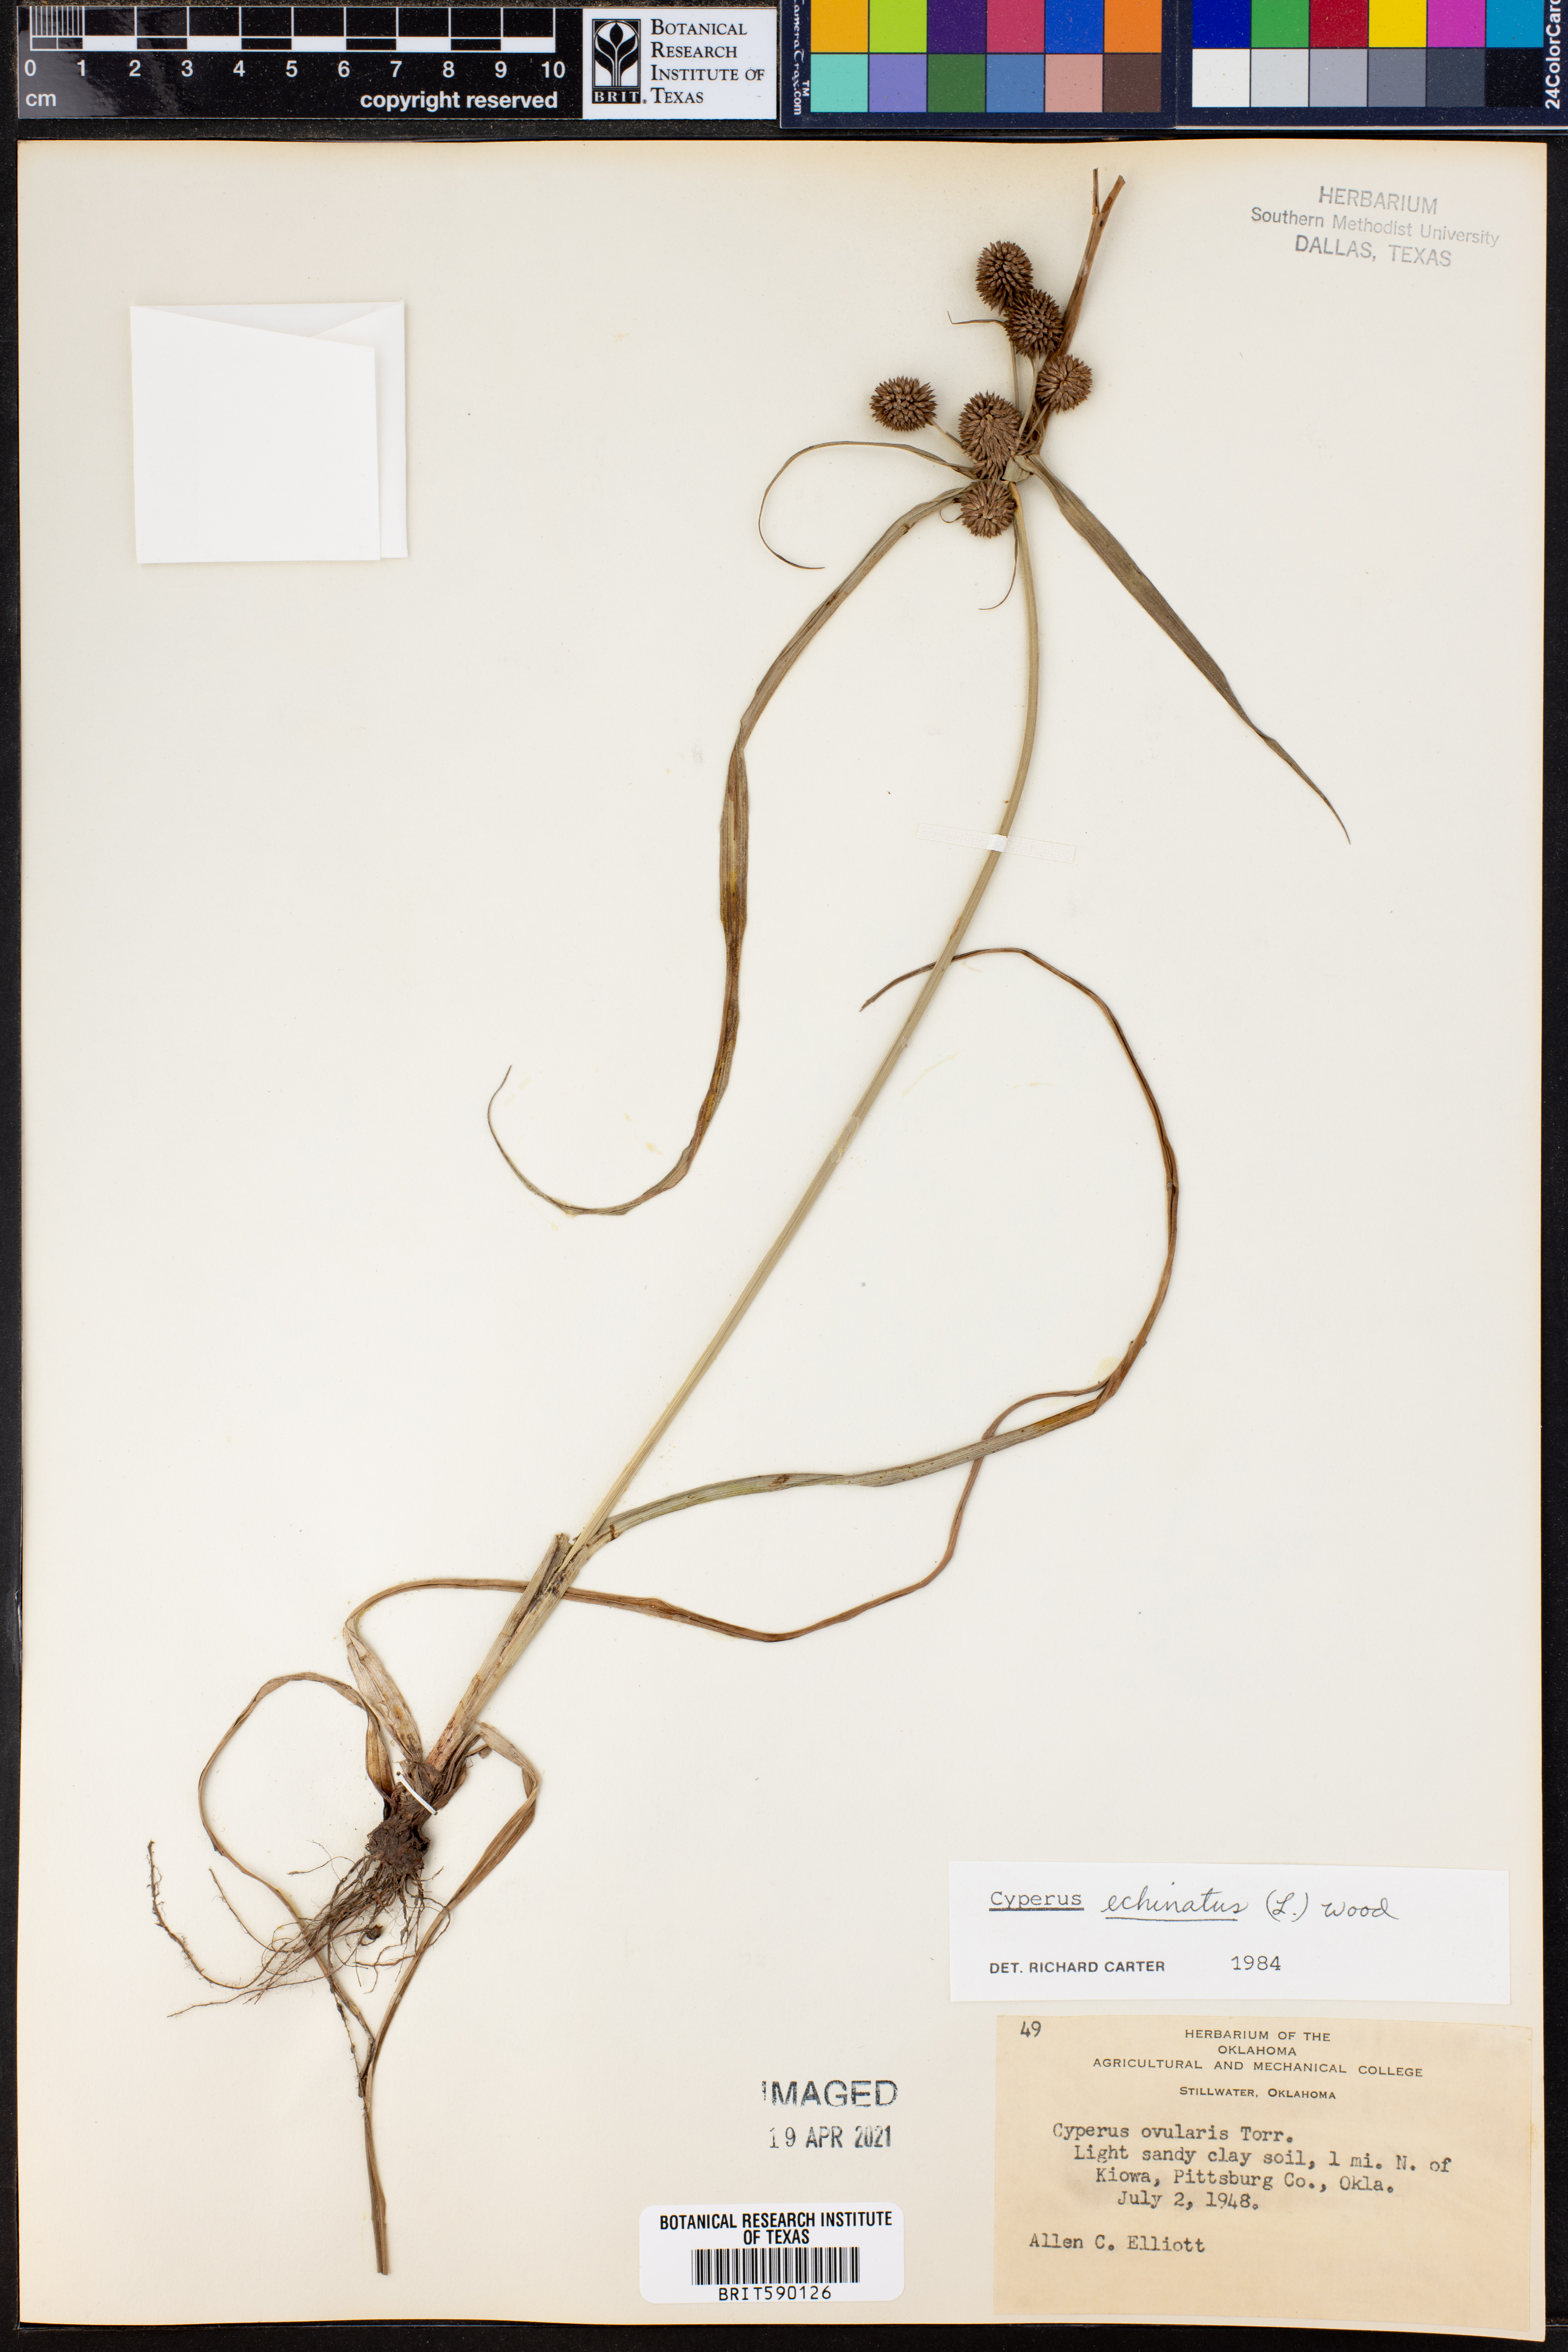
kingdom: Plantae
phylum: Tracheophyta
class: Liliopsida
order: Poales
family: Cyperaceae
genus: Cyperus
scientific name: Cyperus echinatus
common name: Teasel sedge
